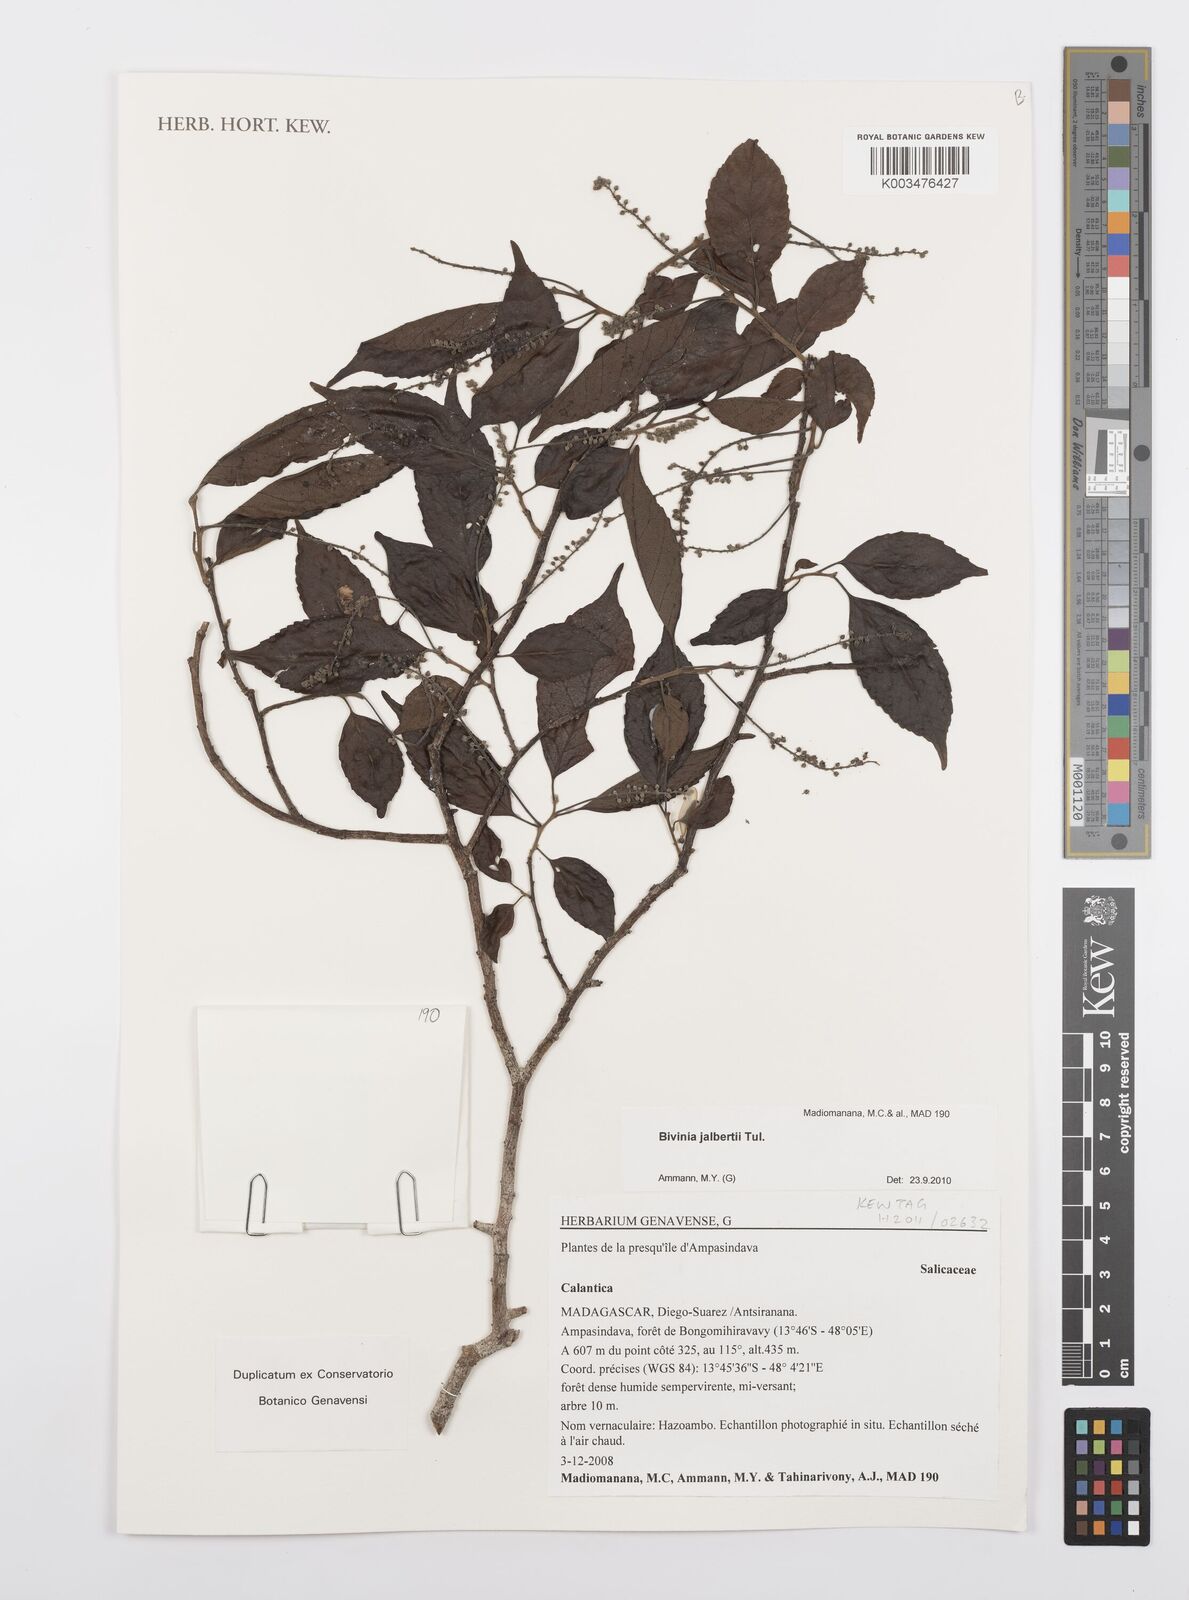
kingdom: Plantae
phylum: Tracheophyta
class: Magnoliopsida
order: Malpighiales
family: Salicaceae
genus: Bivinia
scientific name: Bivinia jalbertii
